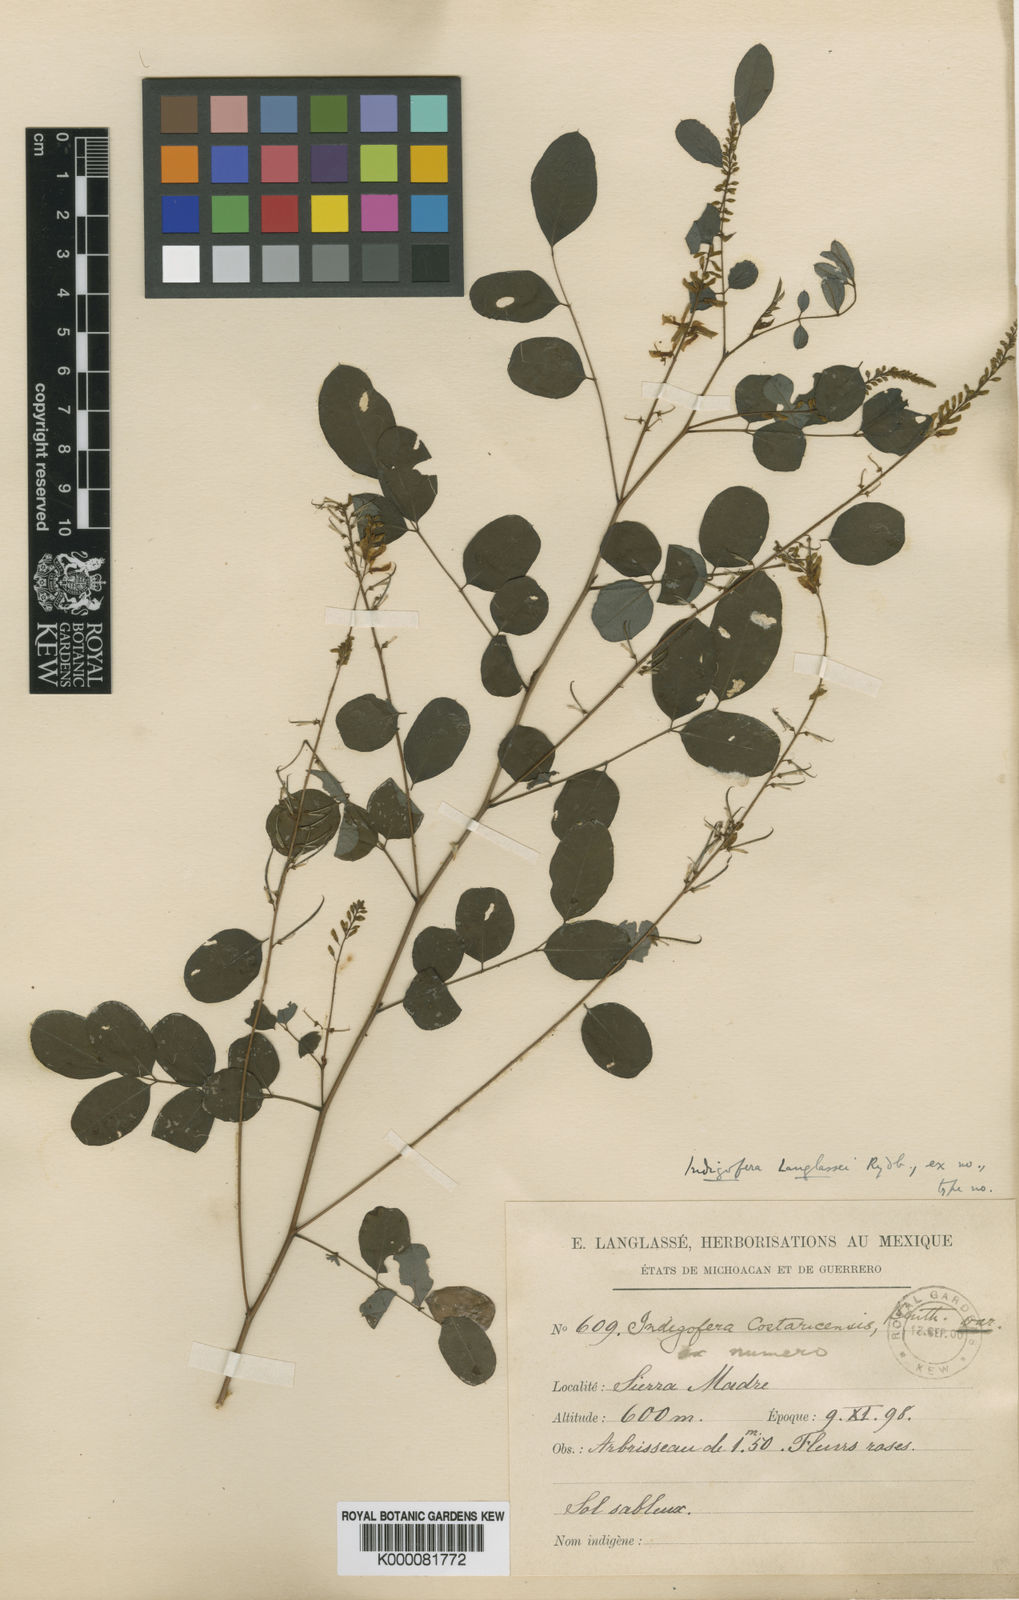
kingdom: Plantae
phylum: Tracheophyta
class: Magnoliopsida
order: Fabales
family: Fabaceae
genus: Indigofera
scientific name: Indigofera langlassei
